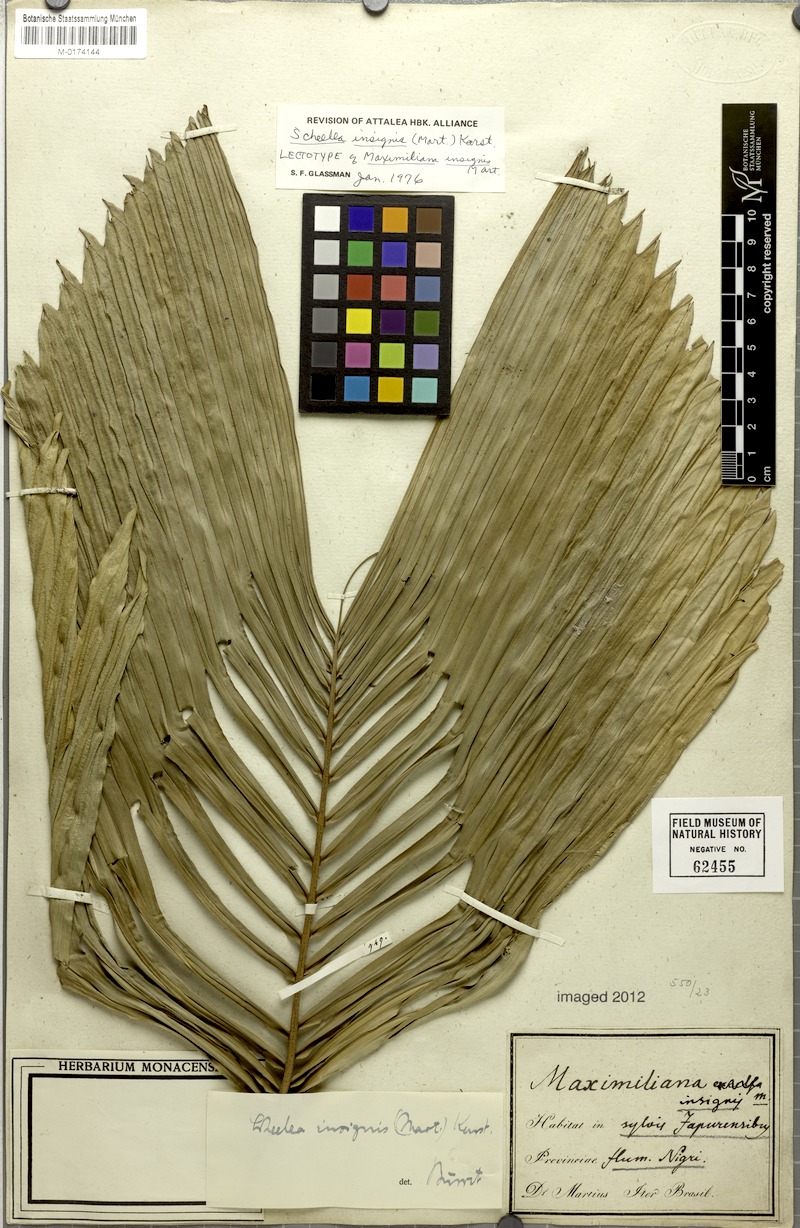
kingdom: Plantae
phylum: Tracheophyta
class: Liliopsida
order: Arecales
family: Arecaceae
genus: Attalea
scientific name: Attalea insignis
